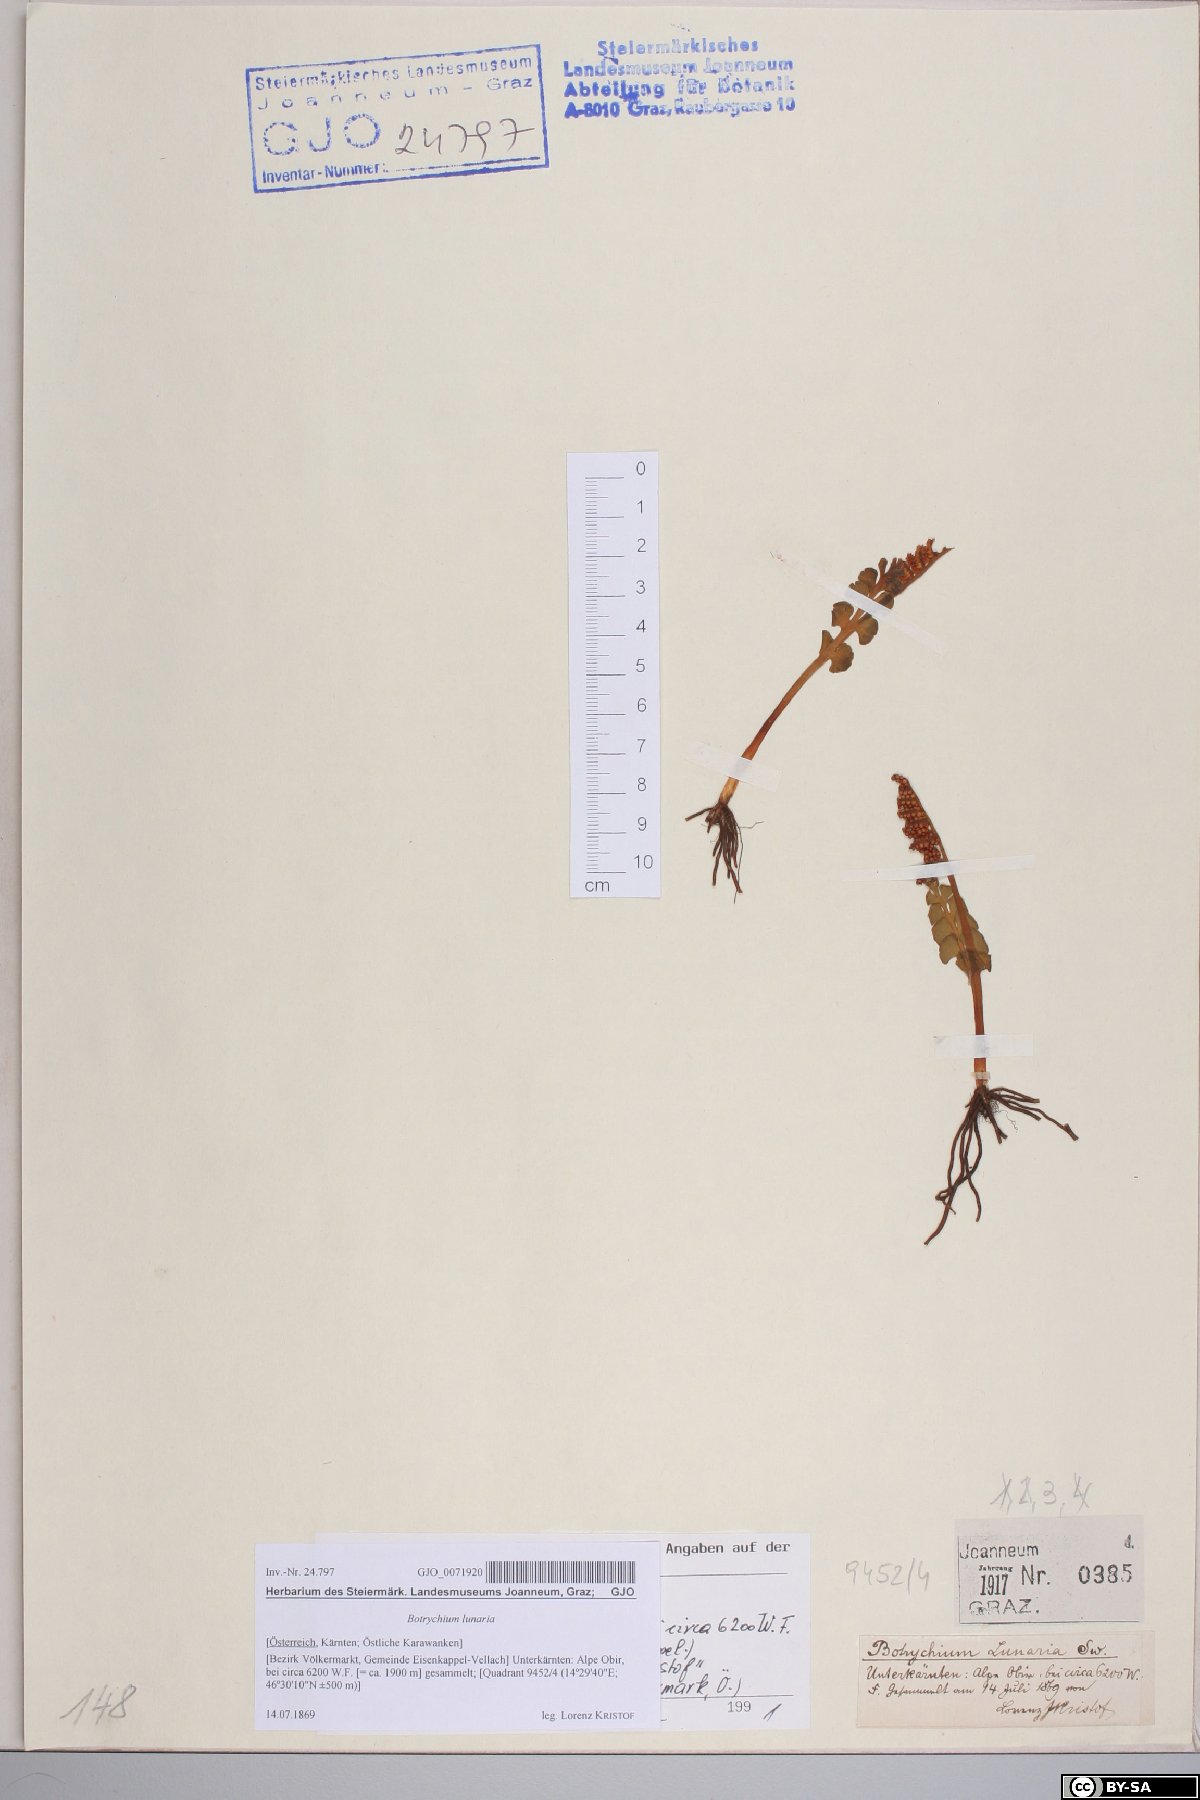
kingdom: Plantae
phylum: Tracheophyta
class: Polypodiopsida
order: Ophioglossales
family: Ophioglossaceae
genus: Botrychium
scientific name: Botrychium lunaria
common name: Moonwort
